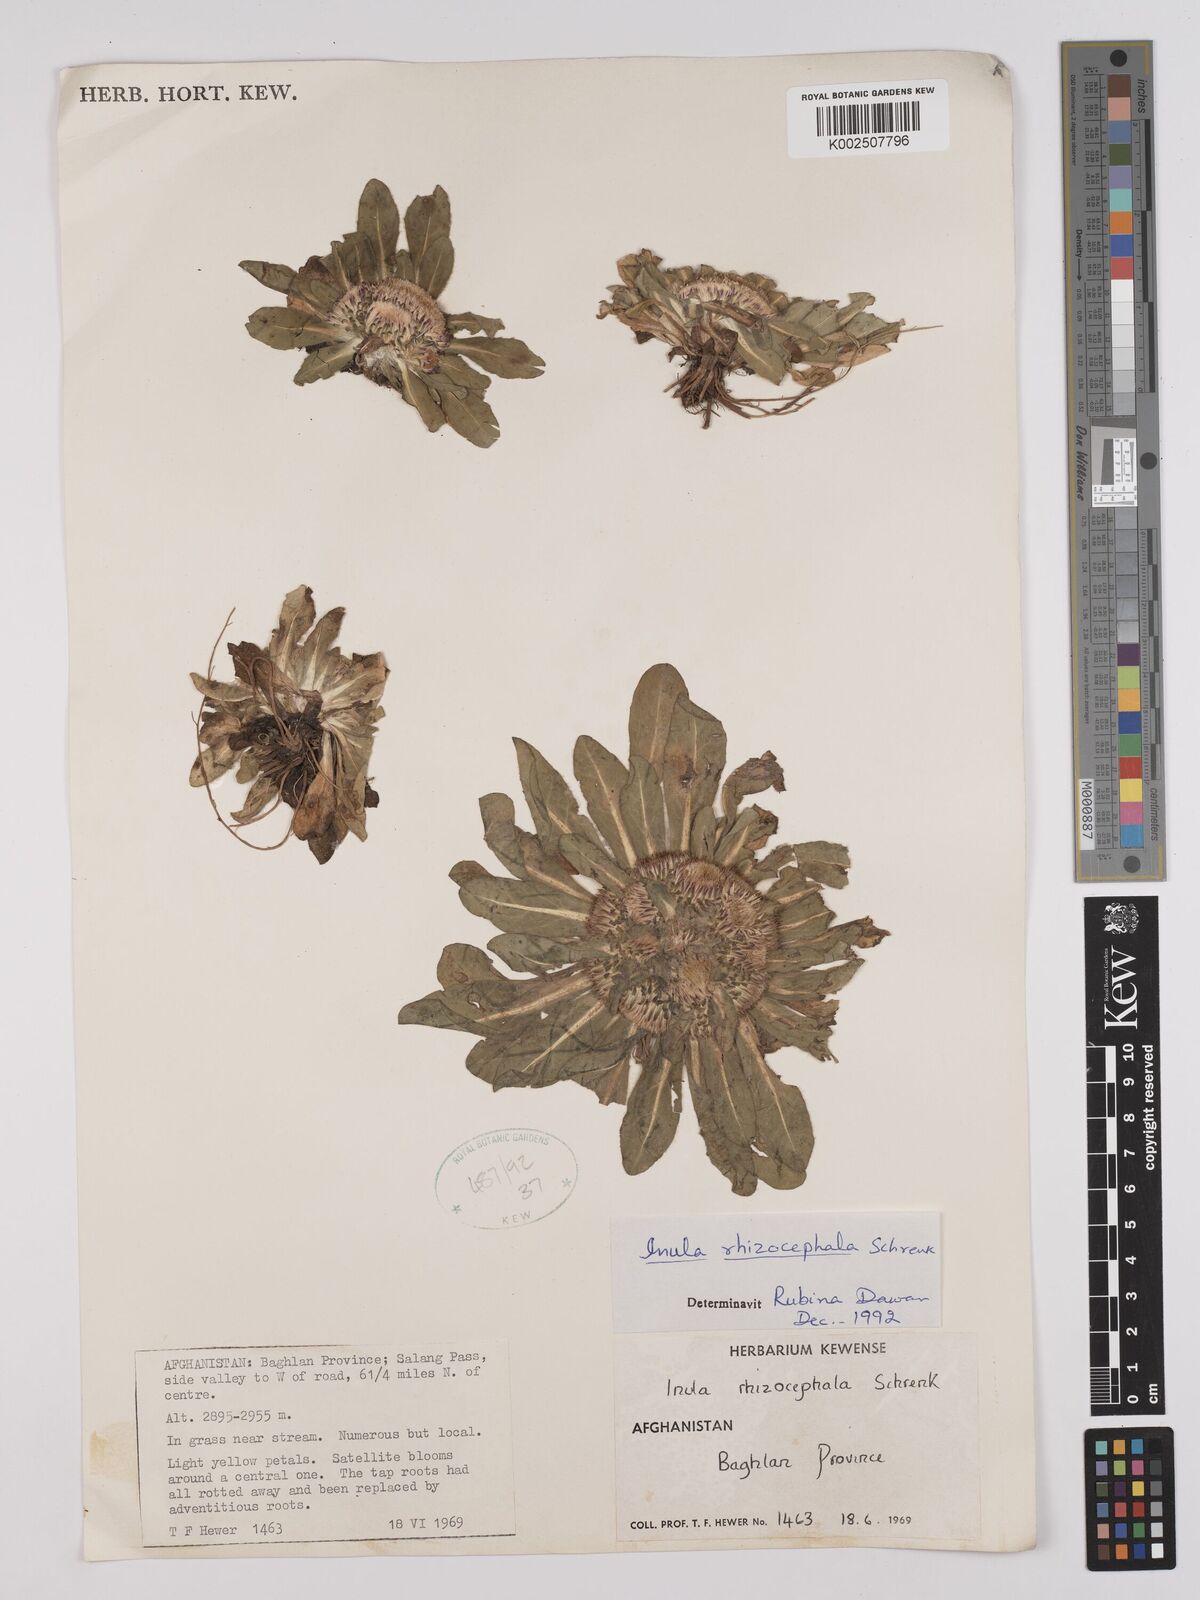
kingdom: Plantae
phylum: Tracheophyta
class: Magnoliopsida
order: Asterales
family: Asteraceae
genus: Inula
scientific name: Inula rhizocephala
